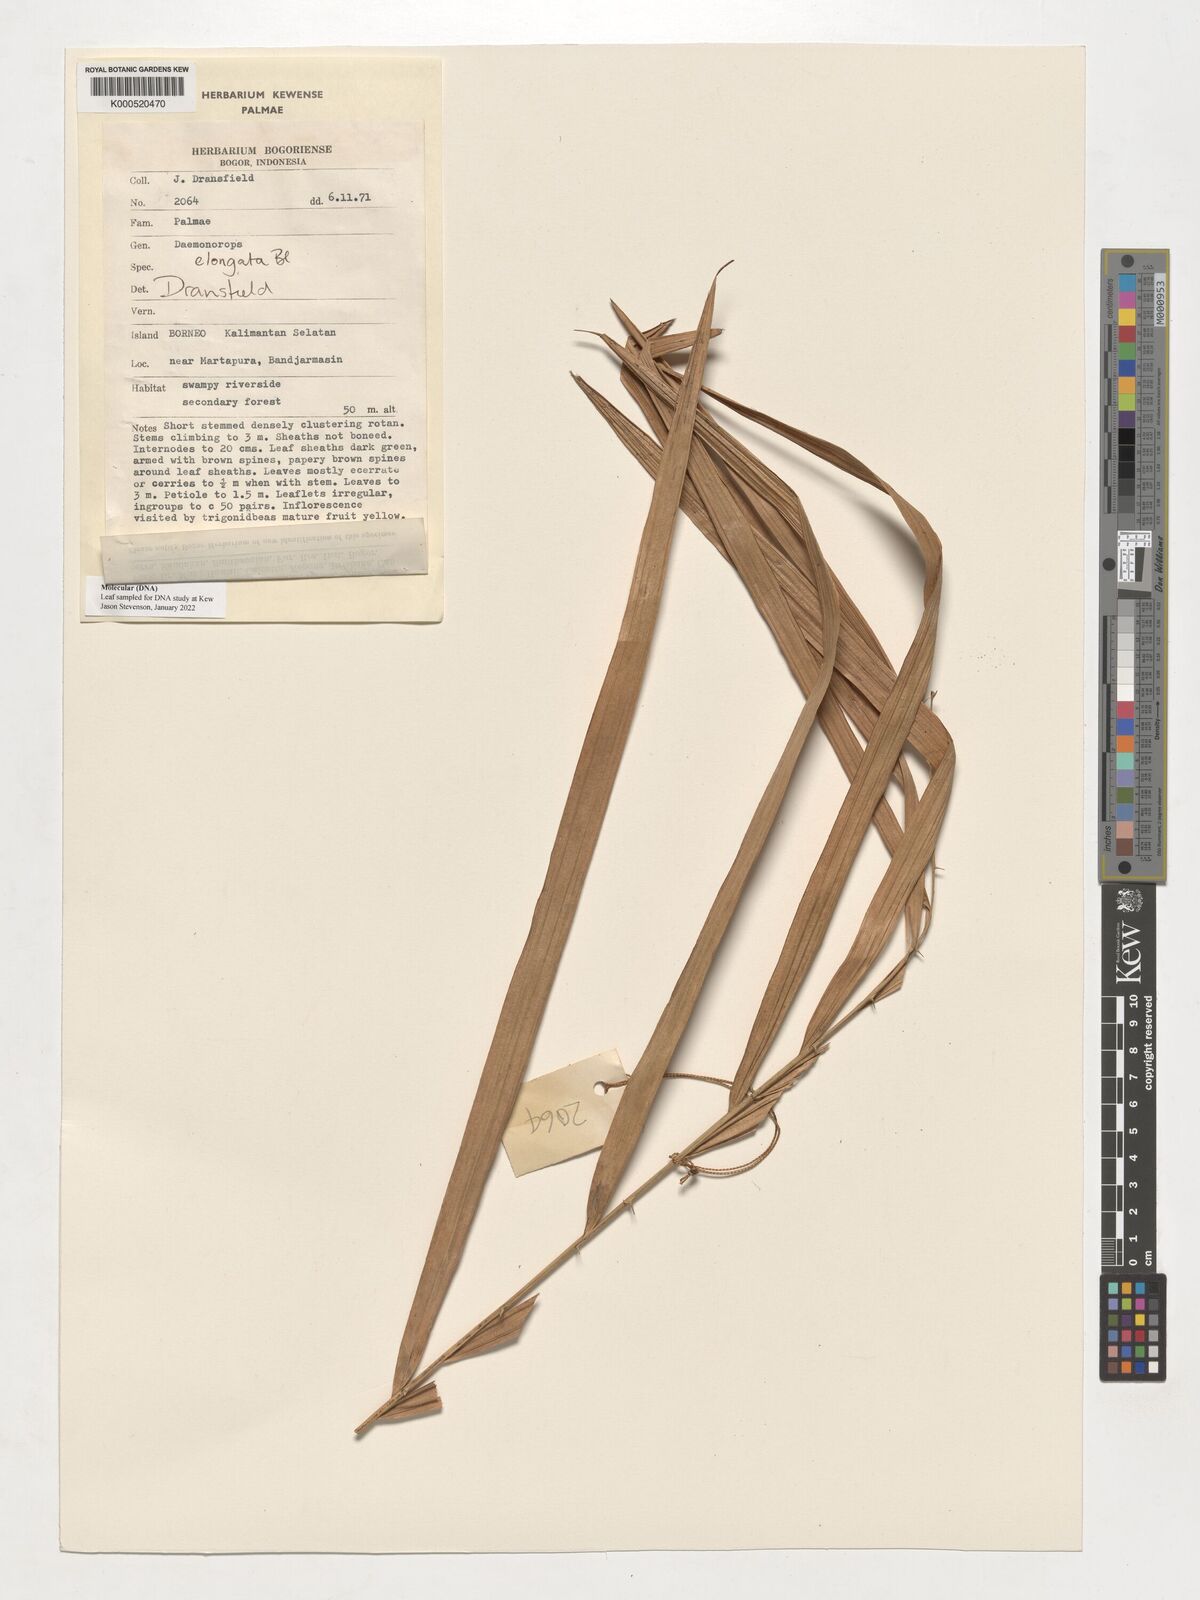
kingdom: Plantae
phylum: Tracheophyta
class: Liliopsida
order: Arecales
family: Arecaceae
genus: Calamus
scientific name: Calamus oblongus
